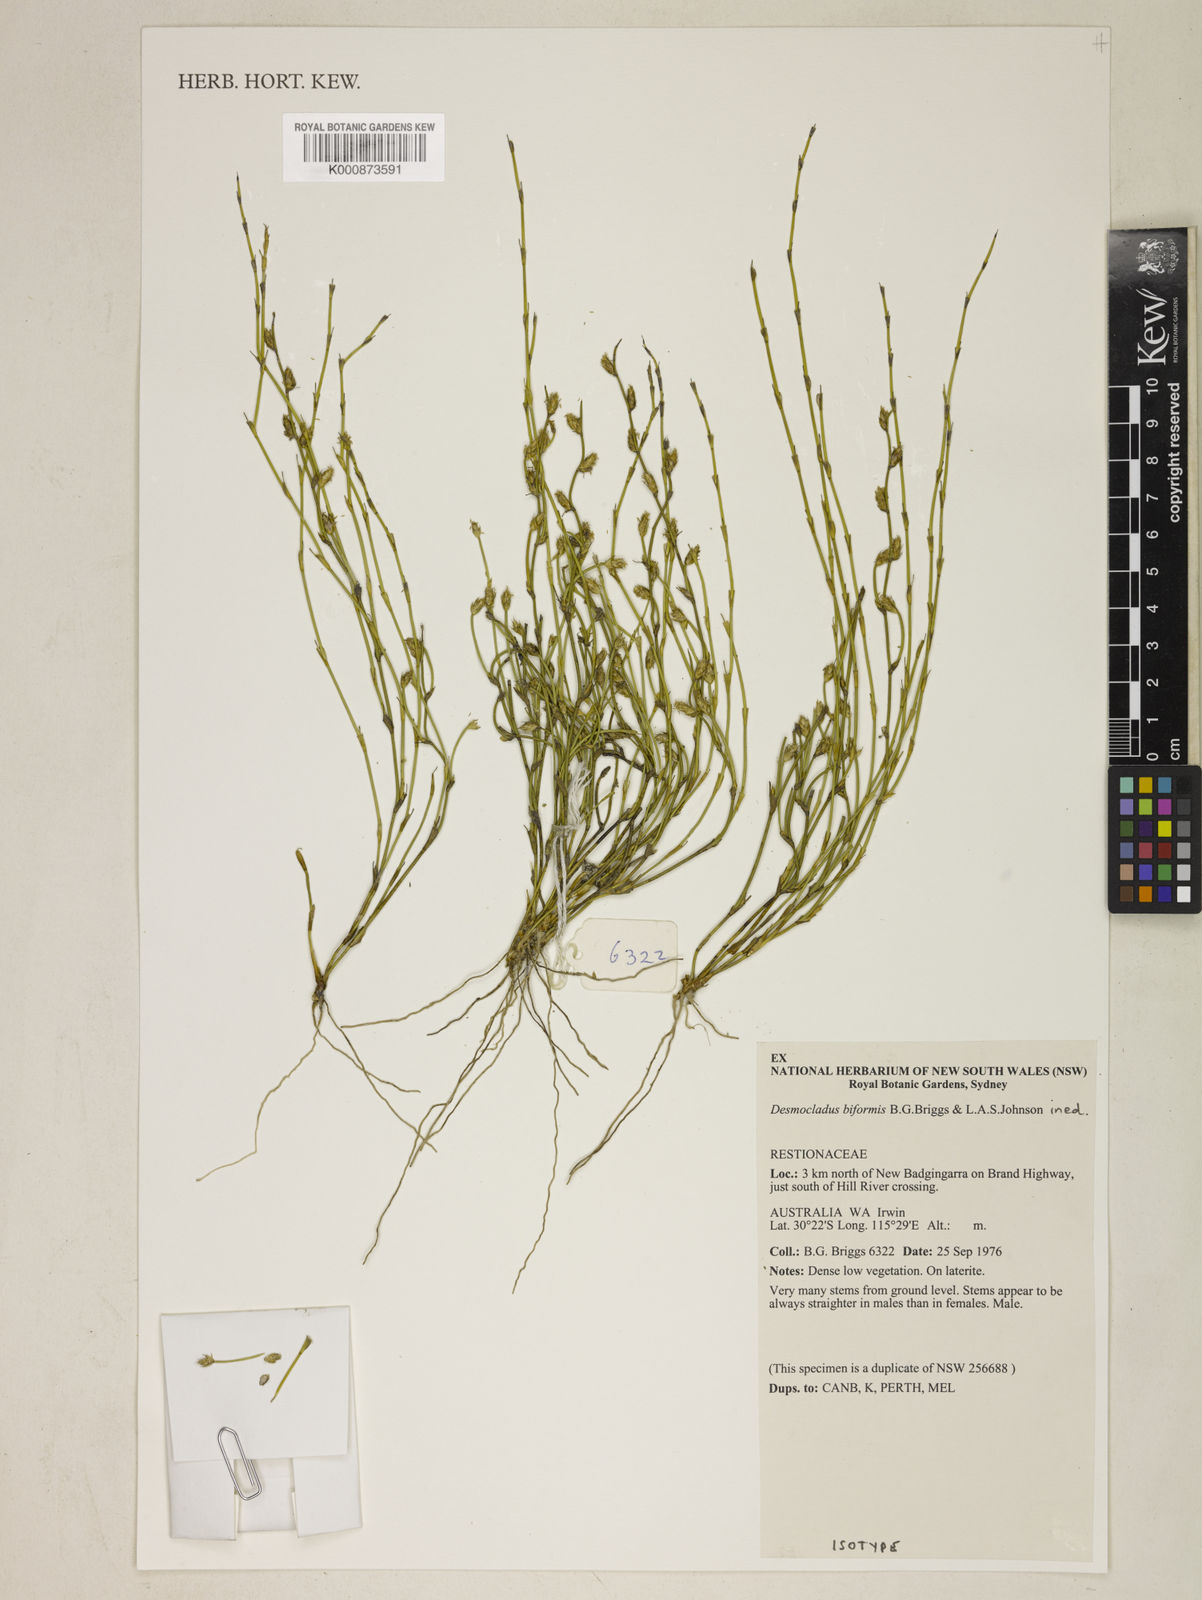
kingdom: Plantae
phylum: Tracheophyta
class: Liliopsida
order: Poales
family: Restionaceae
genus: Desmocladus
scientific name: Desmocladus biformis
